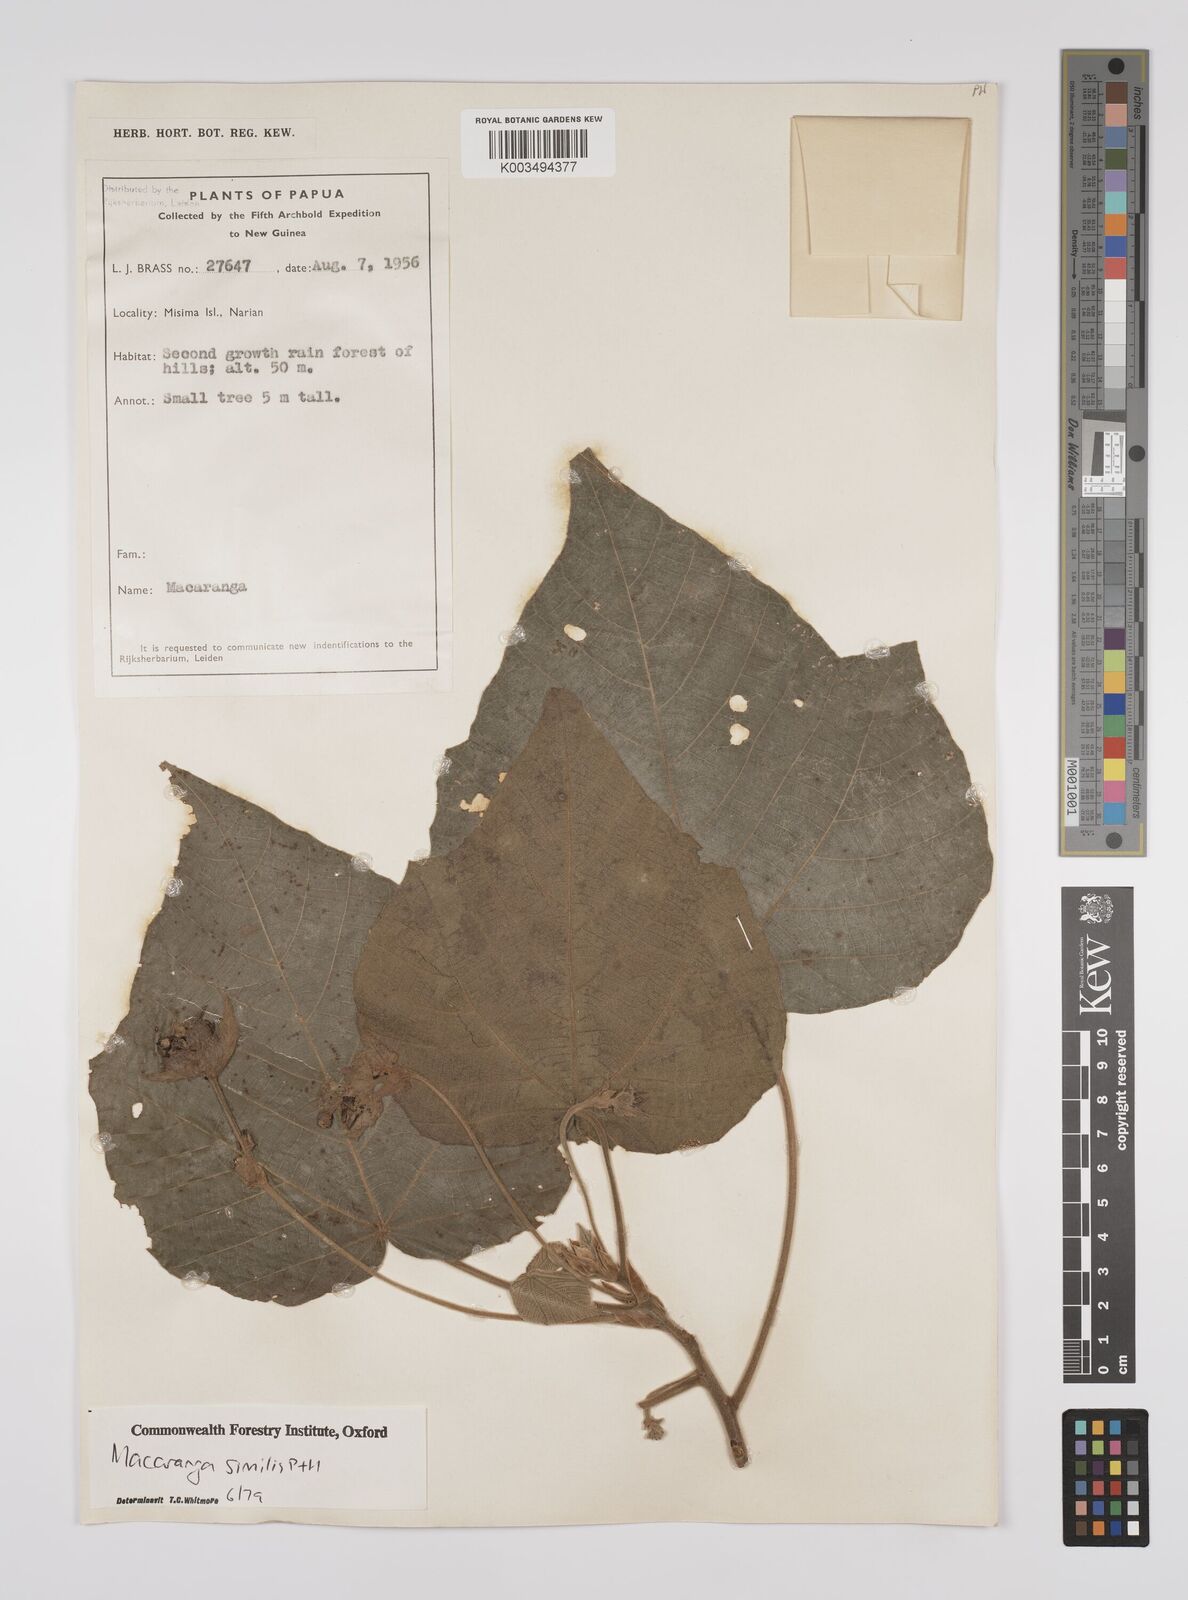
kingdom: Plantae
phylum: Tracheophyta
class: Magnoliopsida
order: Malpighiales
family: Euphorbiaceae
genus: Macaranga
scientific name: Macaranga similis
